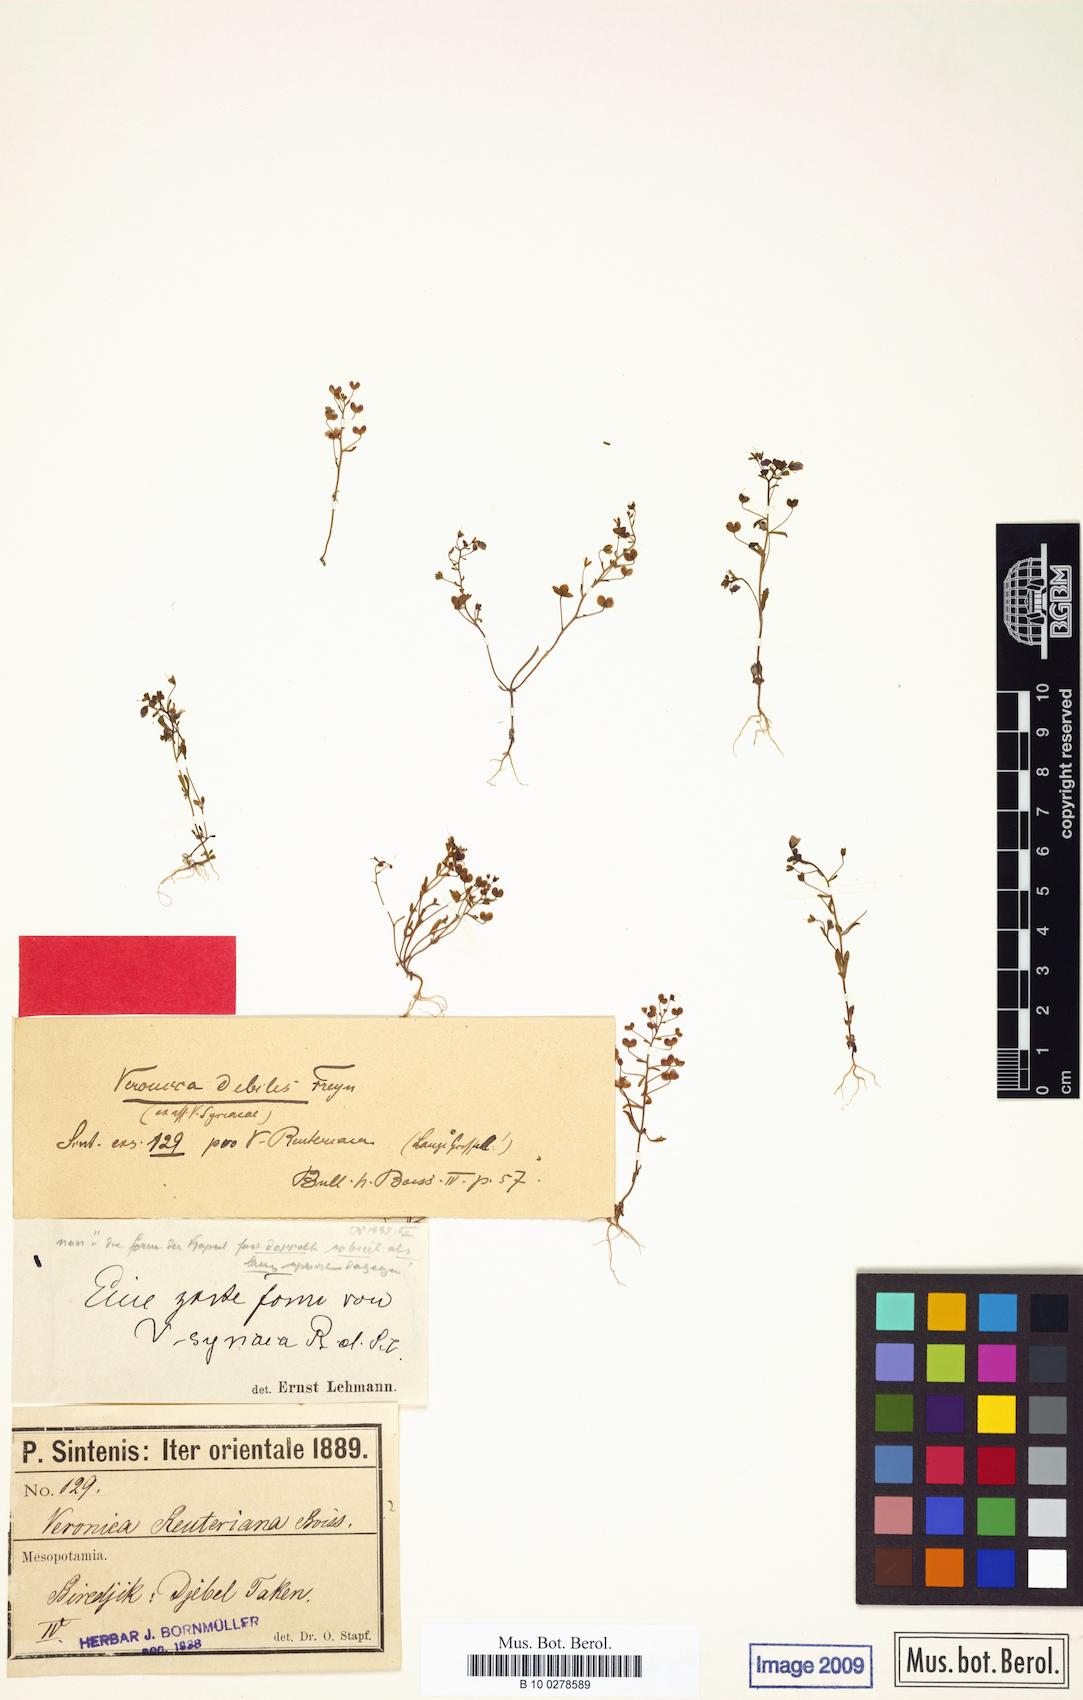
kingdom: Plantae
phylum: Tracheophyta
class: Magnoliopsida
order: Lamiales
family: Plantaginaceae
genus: Veronica
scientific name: Veronica debilis
